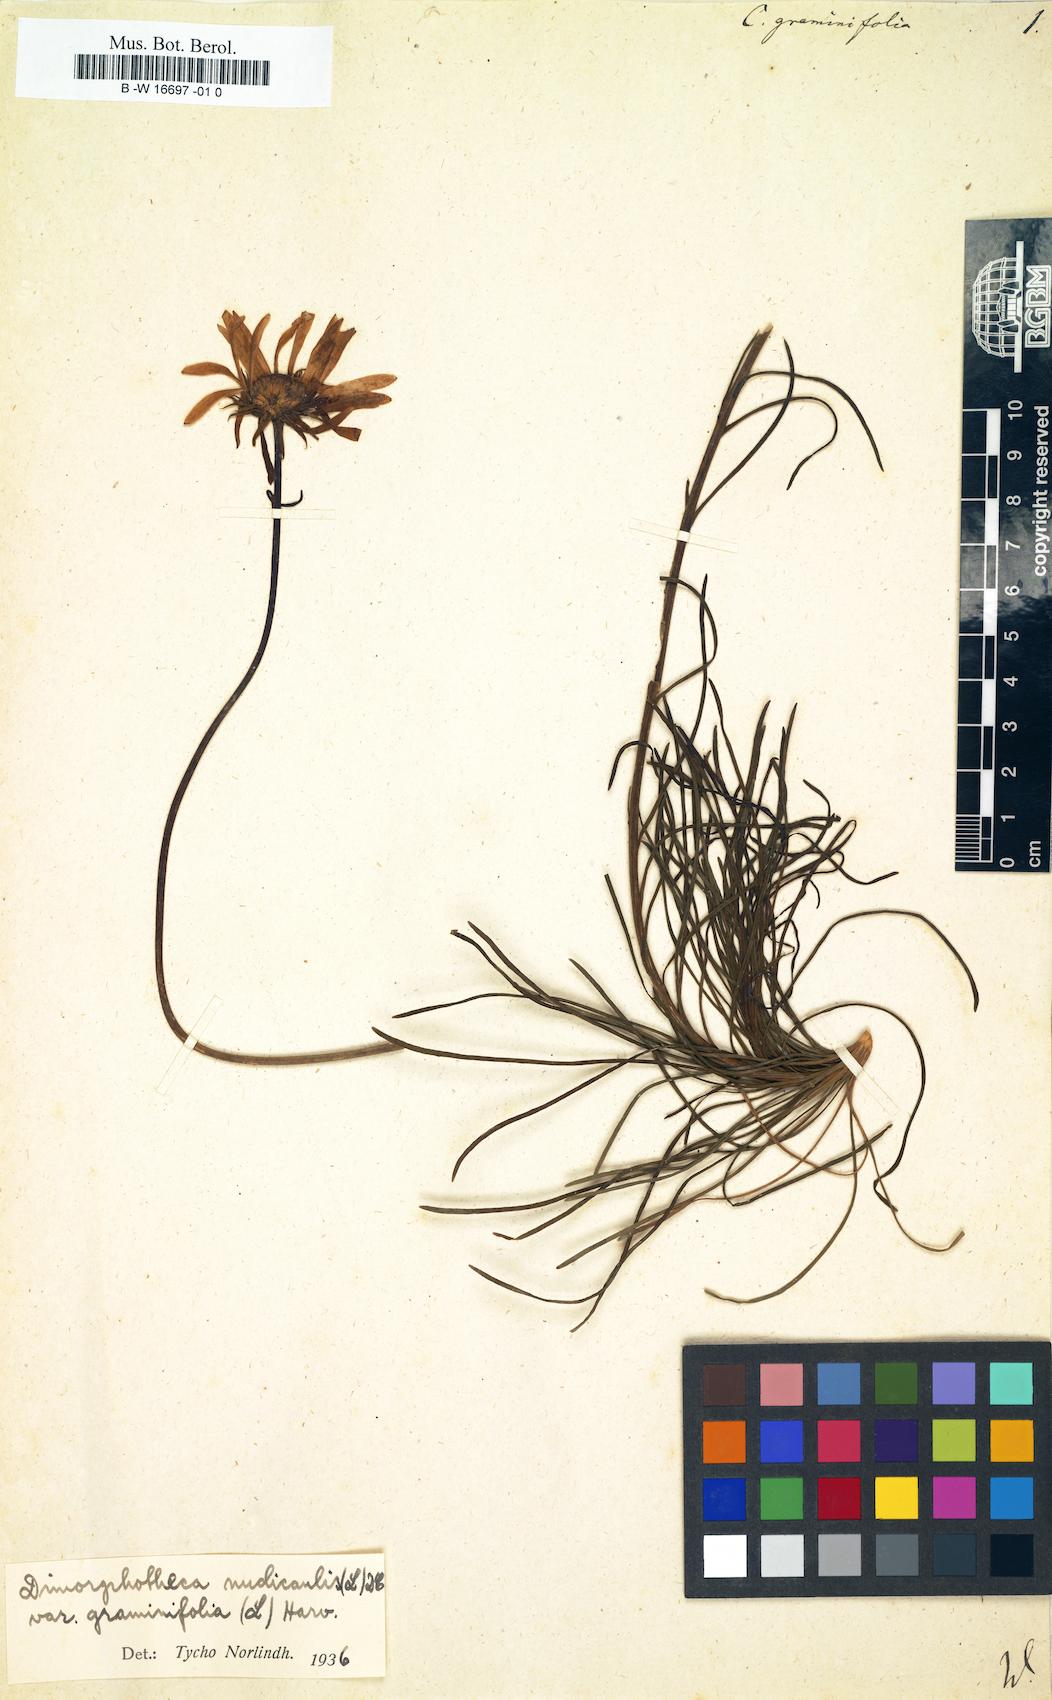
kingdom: Plantae
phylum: Tracheophyta
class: Magnoliopsida
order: Asterales
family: Asteraceae
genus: Dimorphotheca
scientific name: Dimorphotheca nudicaulis
